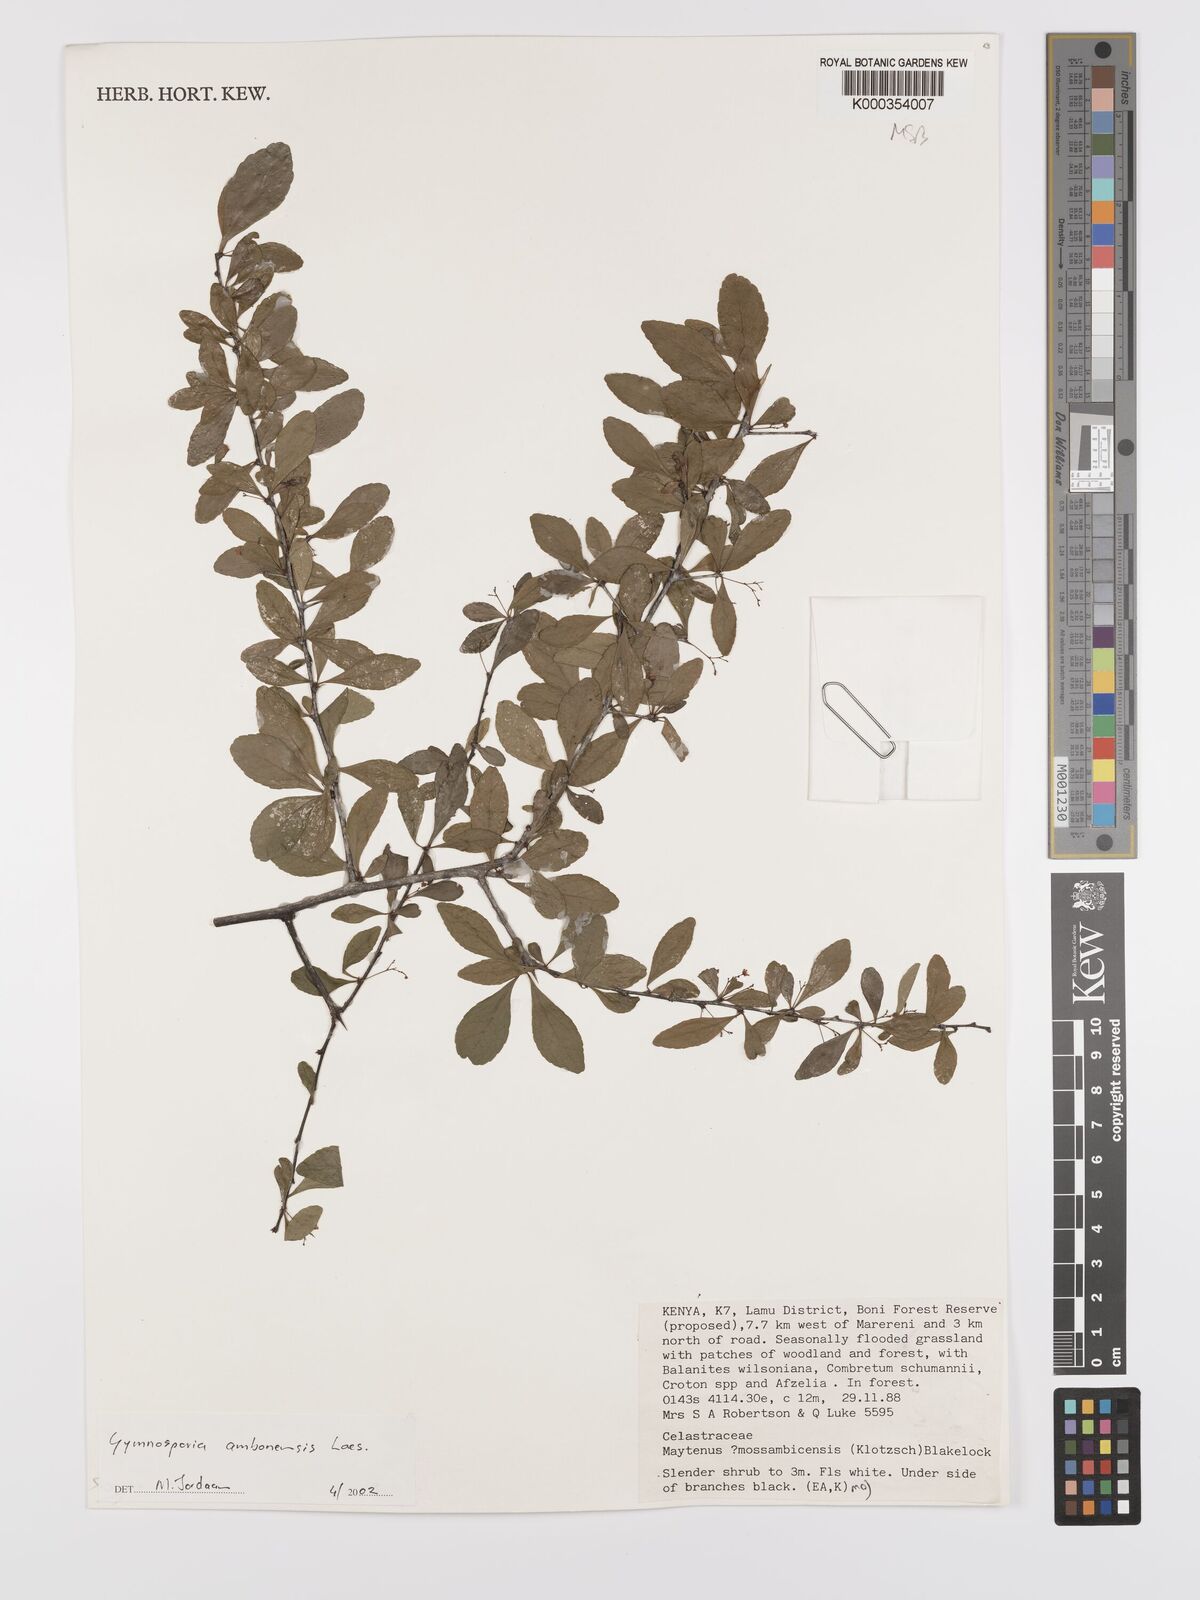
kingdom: Plantae
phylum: Tracheophyta
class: Magnoliopsida
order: Celastrales
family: Celastraceae
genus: Gymnosporia
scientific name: Gymnosporia
